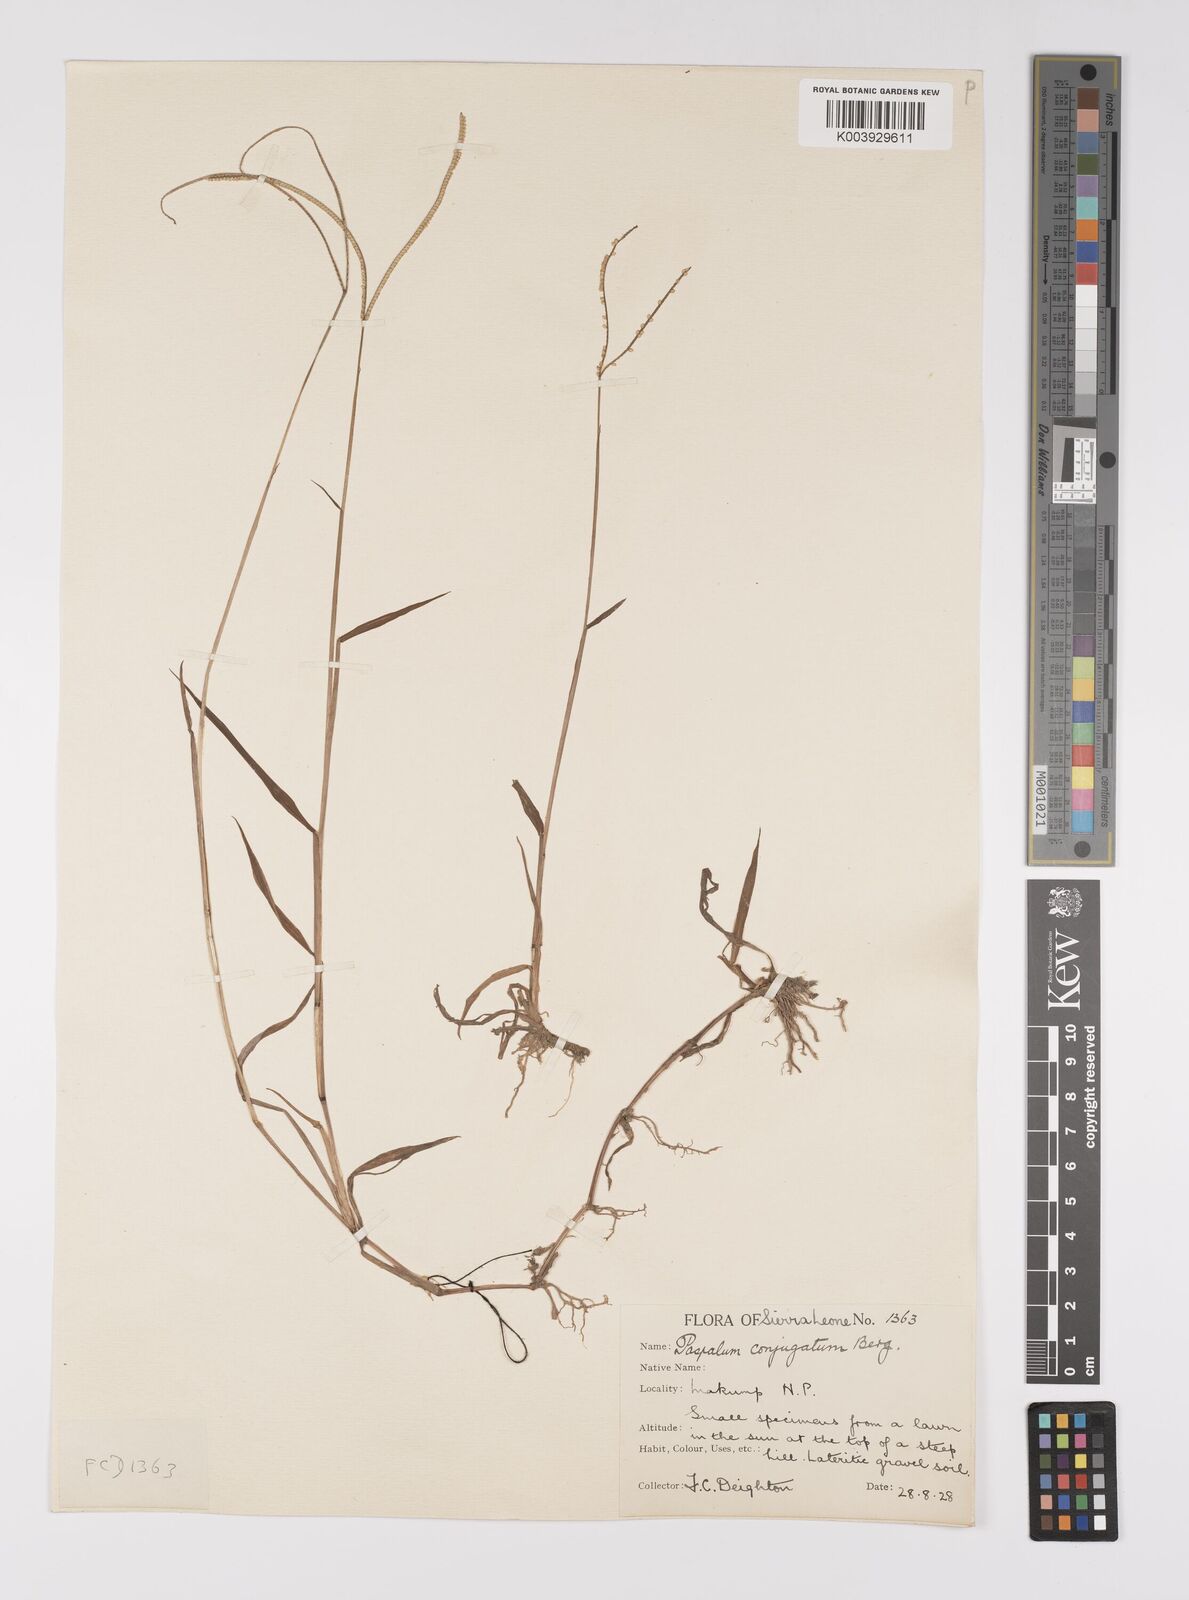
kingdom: Plantae
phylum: Tracheophyta
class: Liliopsida
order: Poales
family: Poaceae
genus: Paspalum
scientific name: Paspalum conjugatum
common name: Hilograss
